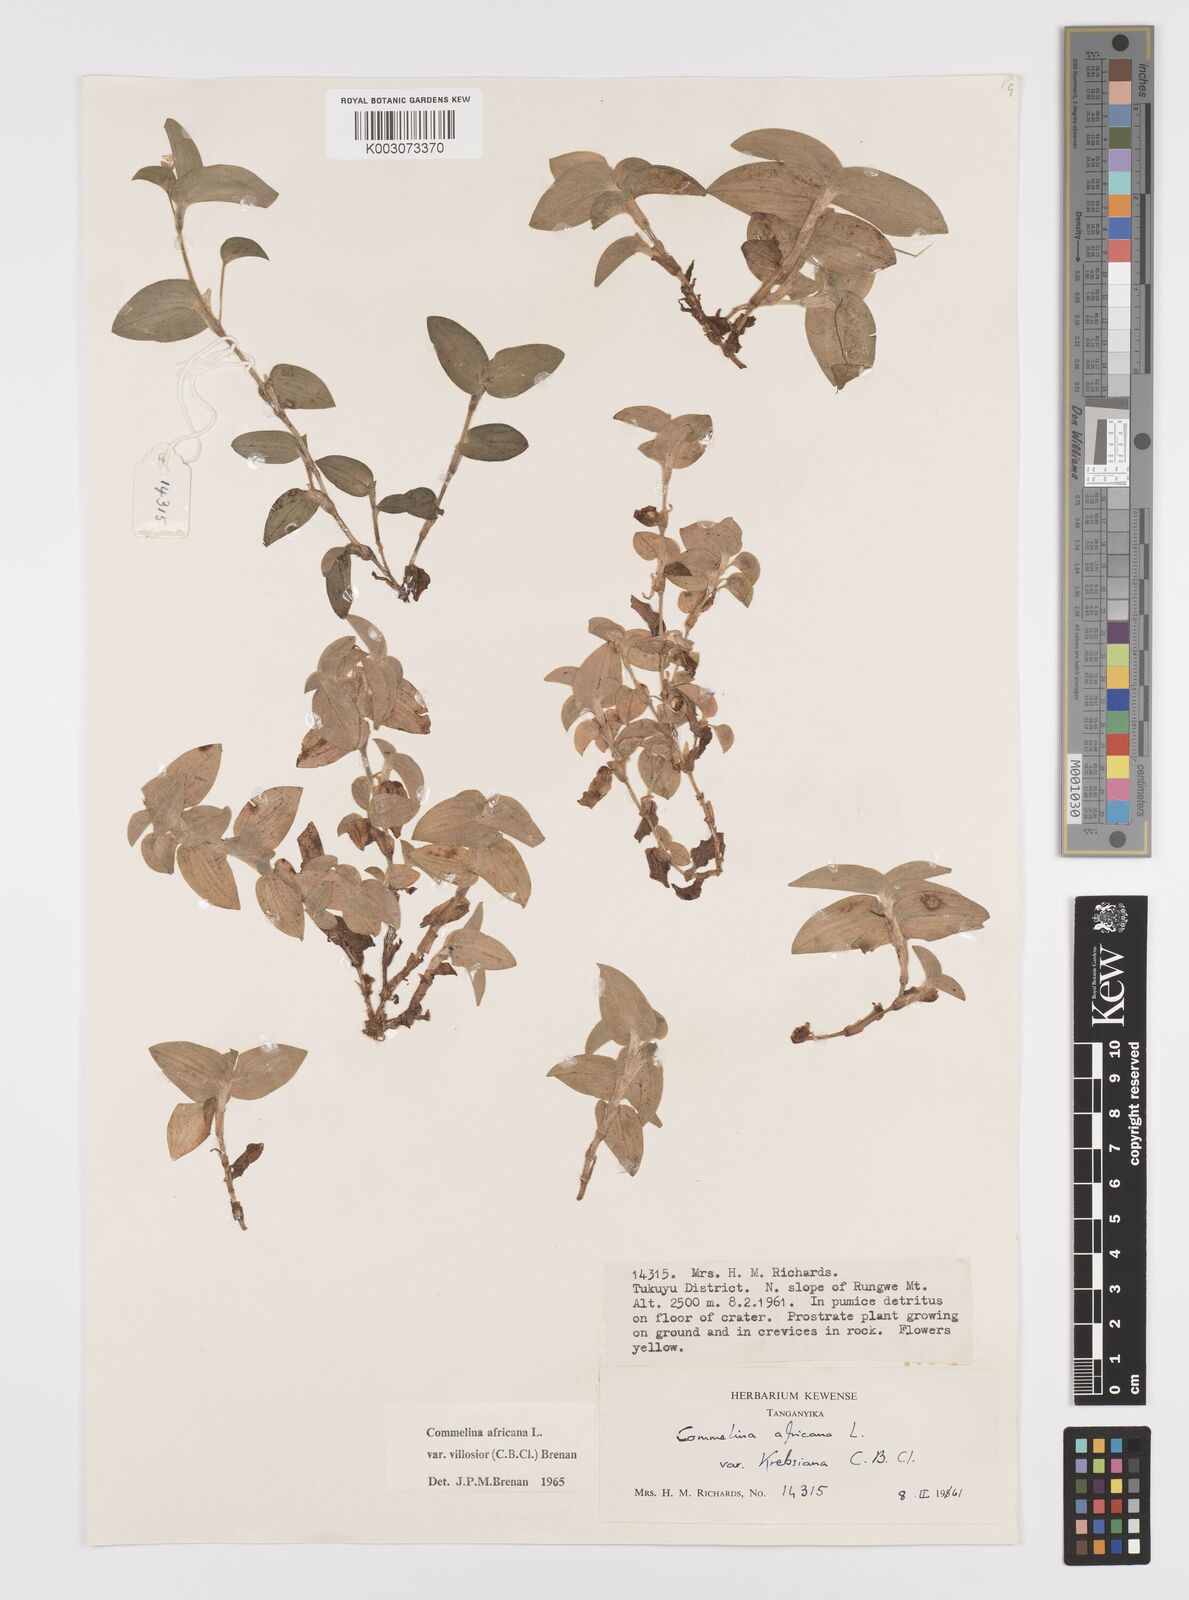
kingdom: Plantae
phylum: Tracheophyta
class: Liliopsida
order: Commelinales
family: Commelinaceae
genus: Commelina
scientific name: Commelina africana
